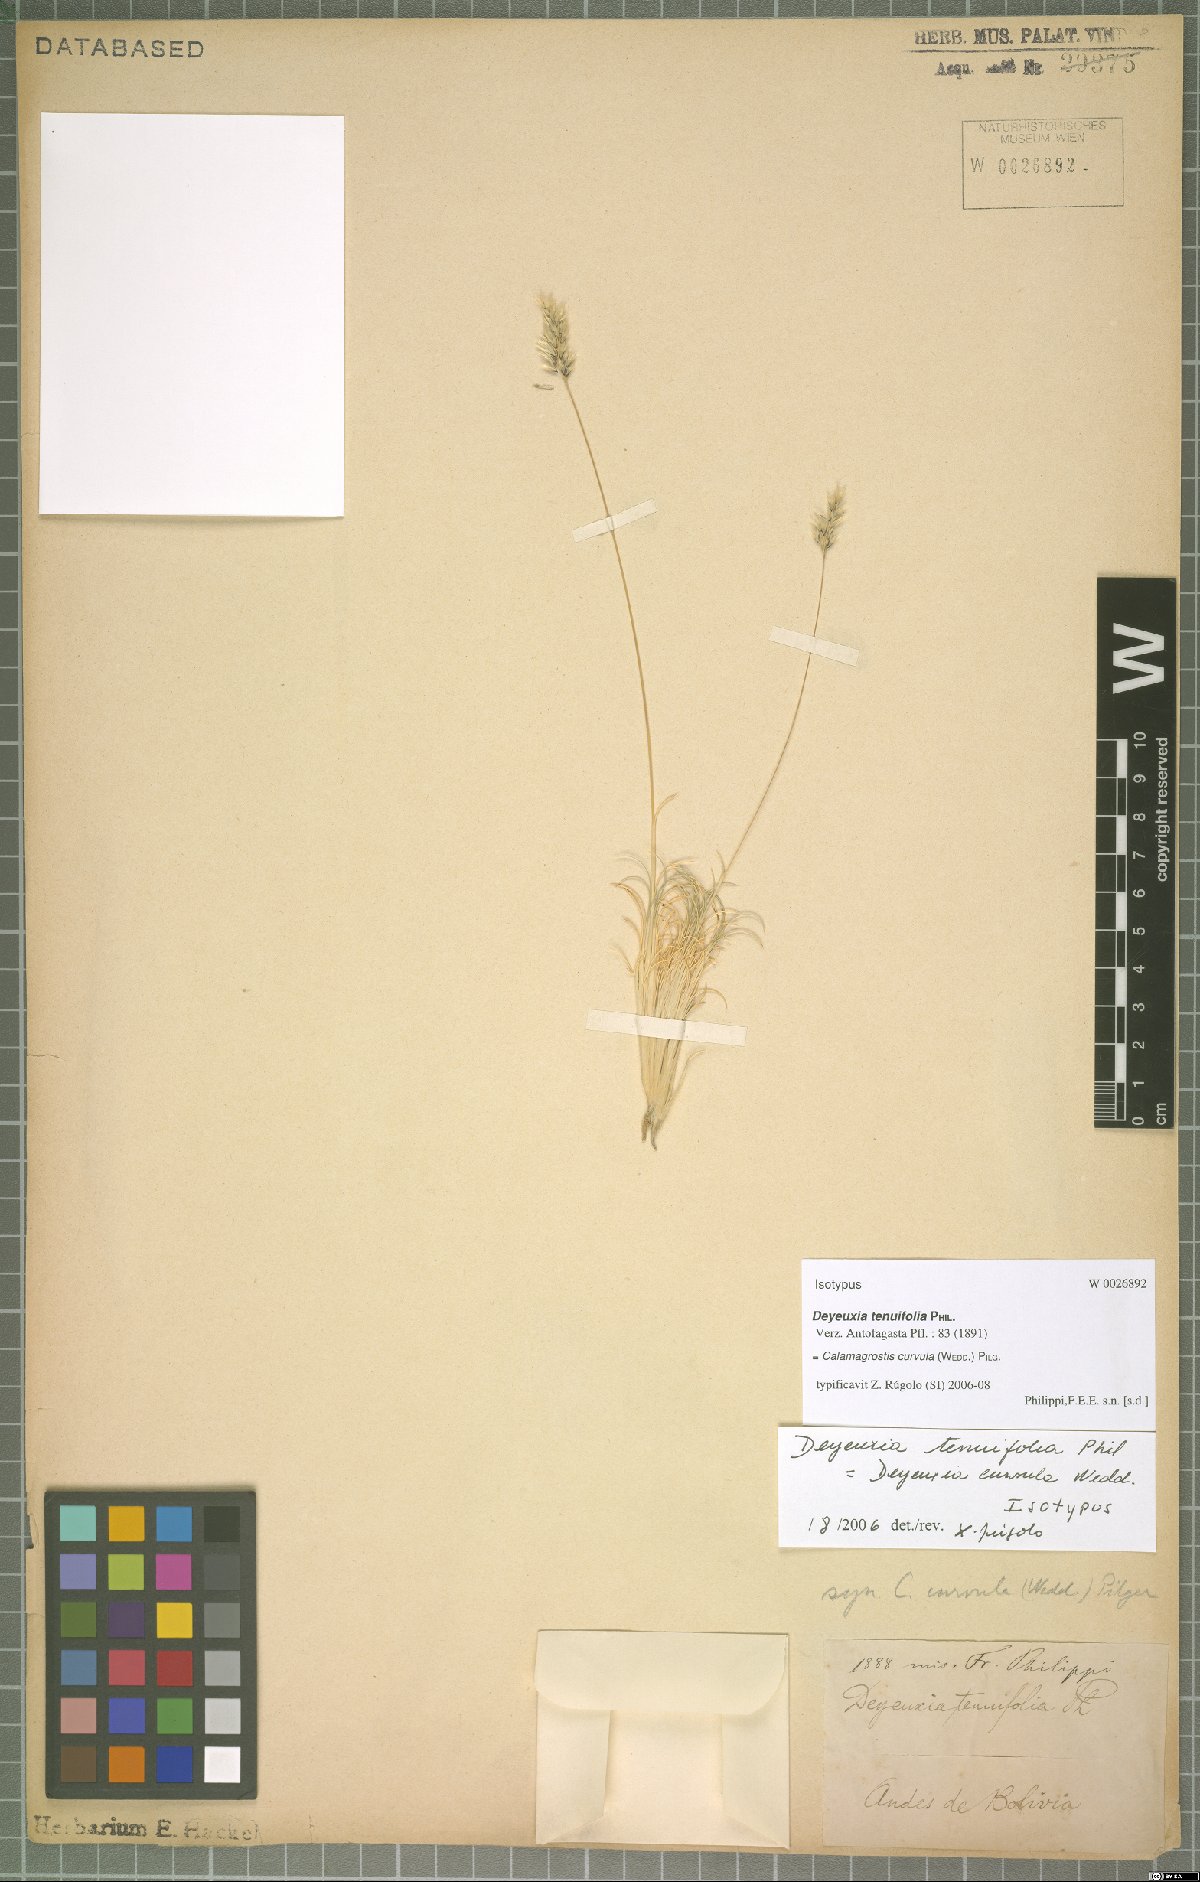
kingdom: Plantae
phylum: Tracheophyta
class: Liliopsida
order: Poales
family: Poaceae
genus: Cinnagrostis
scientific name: Cinnagrostis curvula
